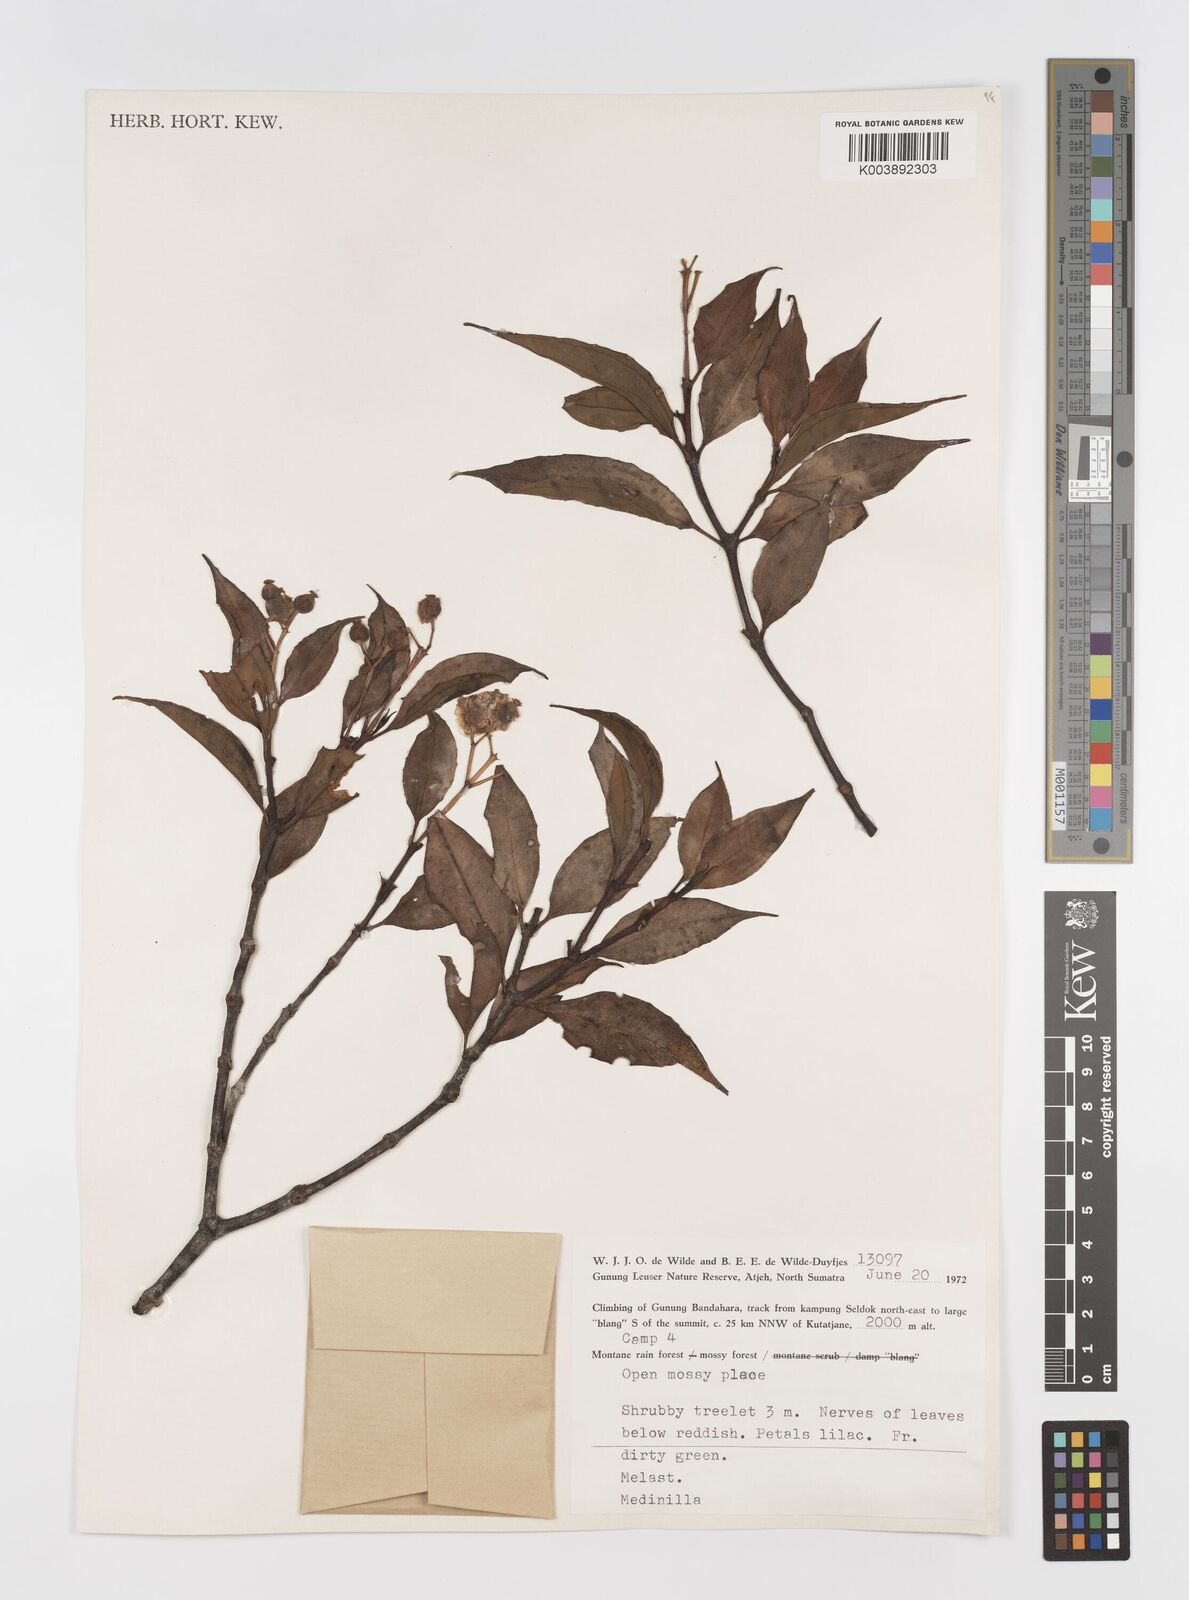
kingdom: Plantae
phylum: Tracheophyta
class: Magnoliopsida
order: Myrtales
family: Melastomataceae
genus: Medinilla
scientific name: Medinilla
